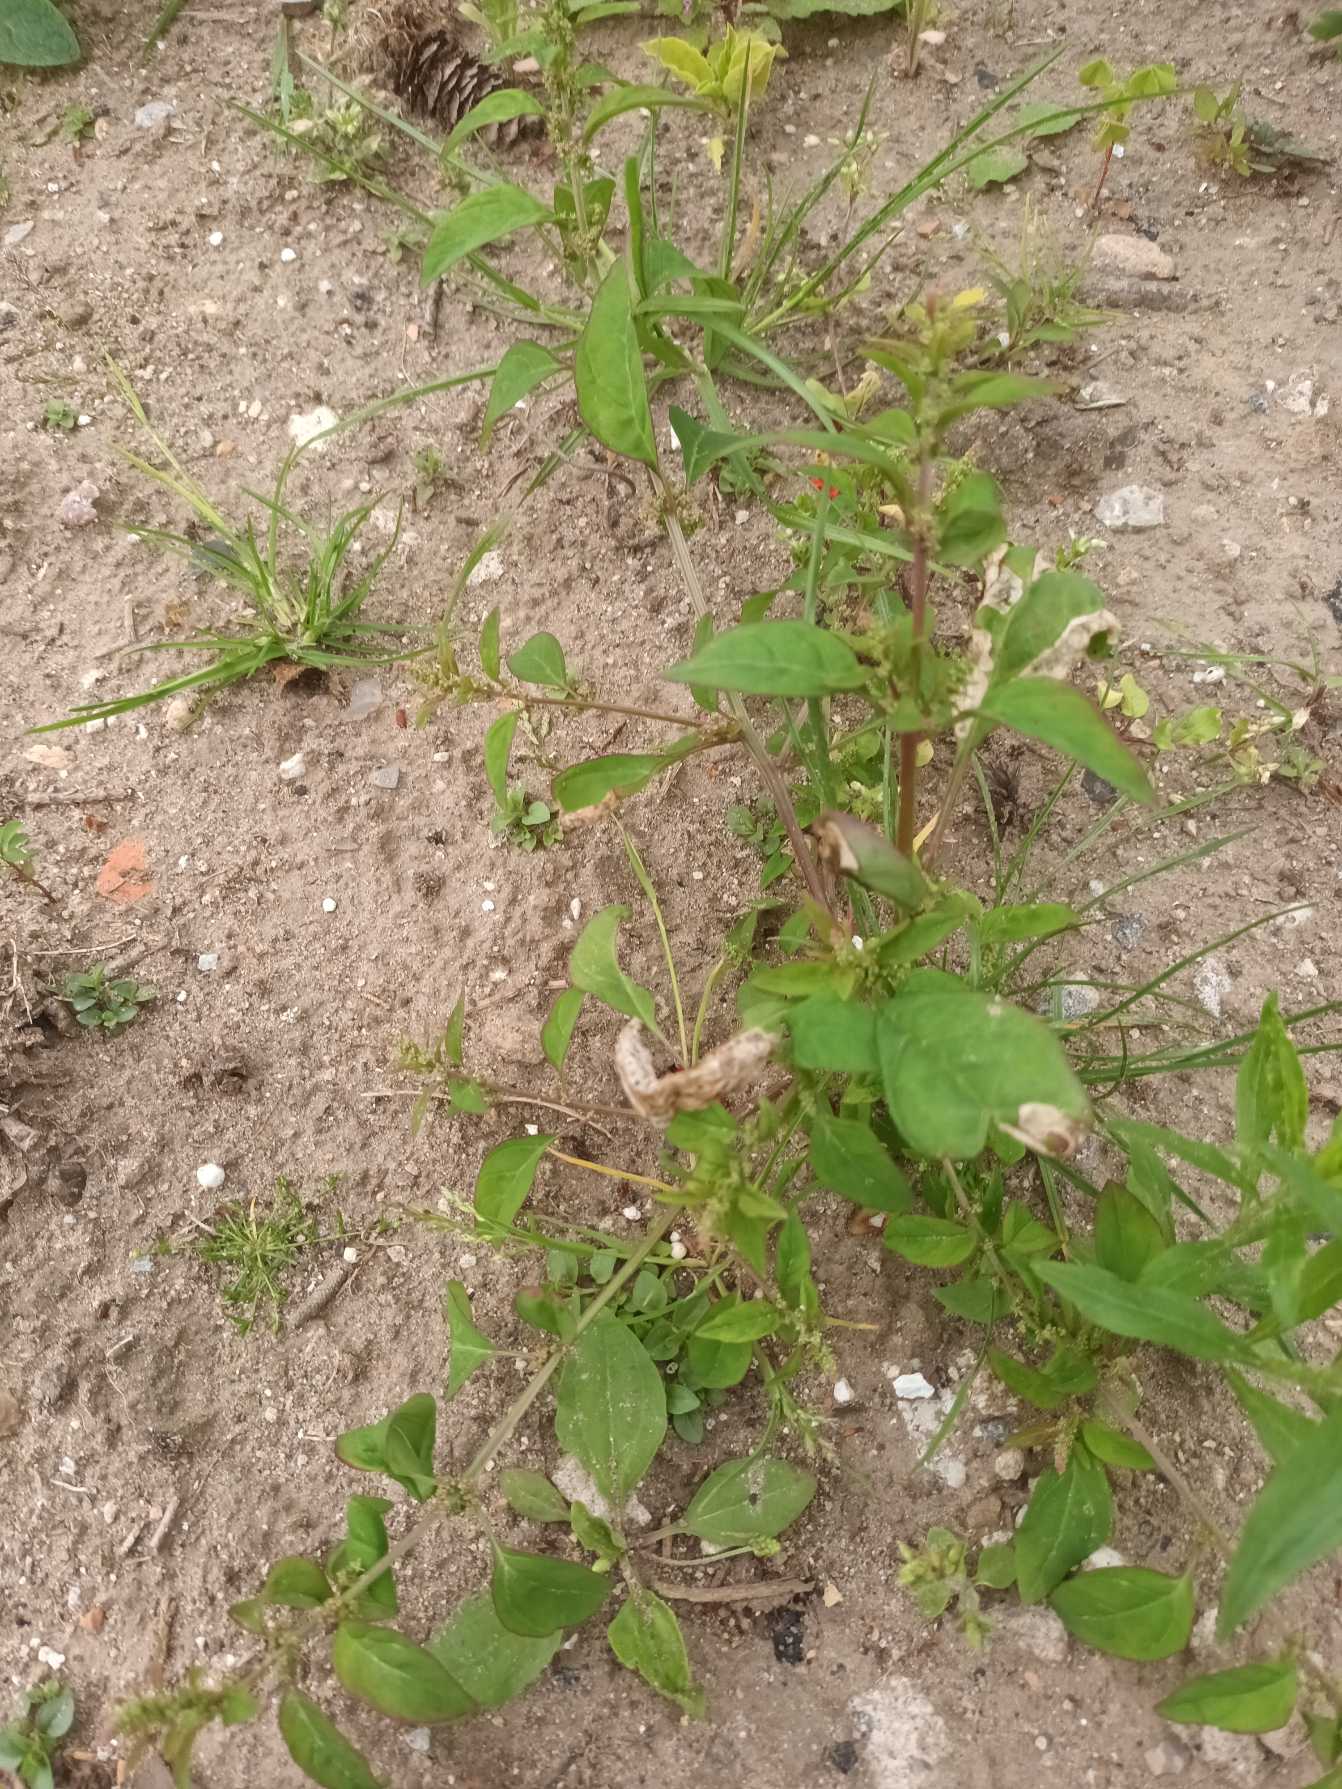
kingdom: Plantae
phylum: Tracheophyta
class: Magnoliopsida
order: Caryophyllales
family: Amaranthaceae
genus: Lipandra
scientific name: Lipandra polysperma
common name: Mangefrøet gåsefod
